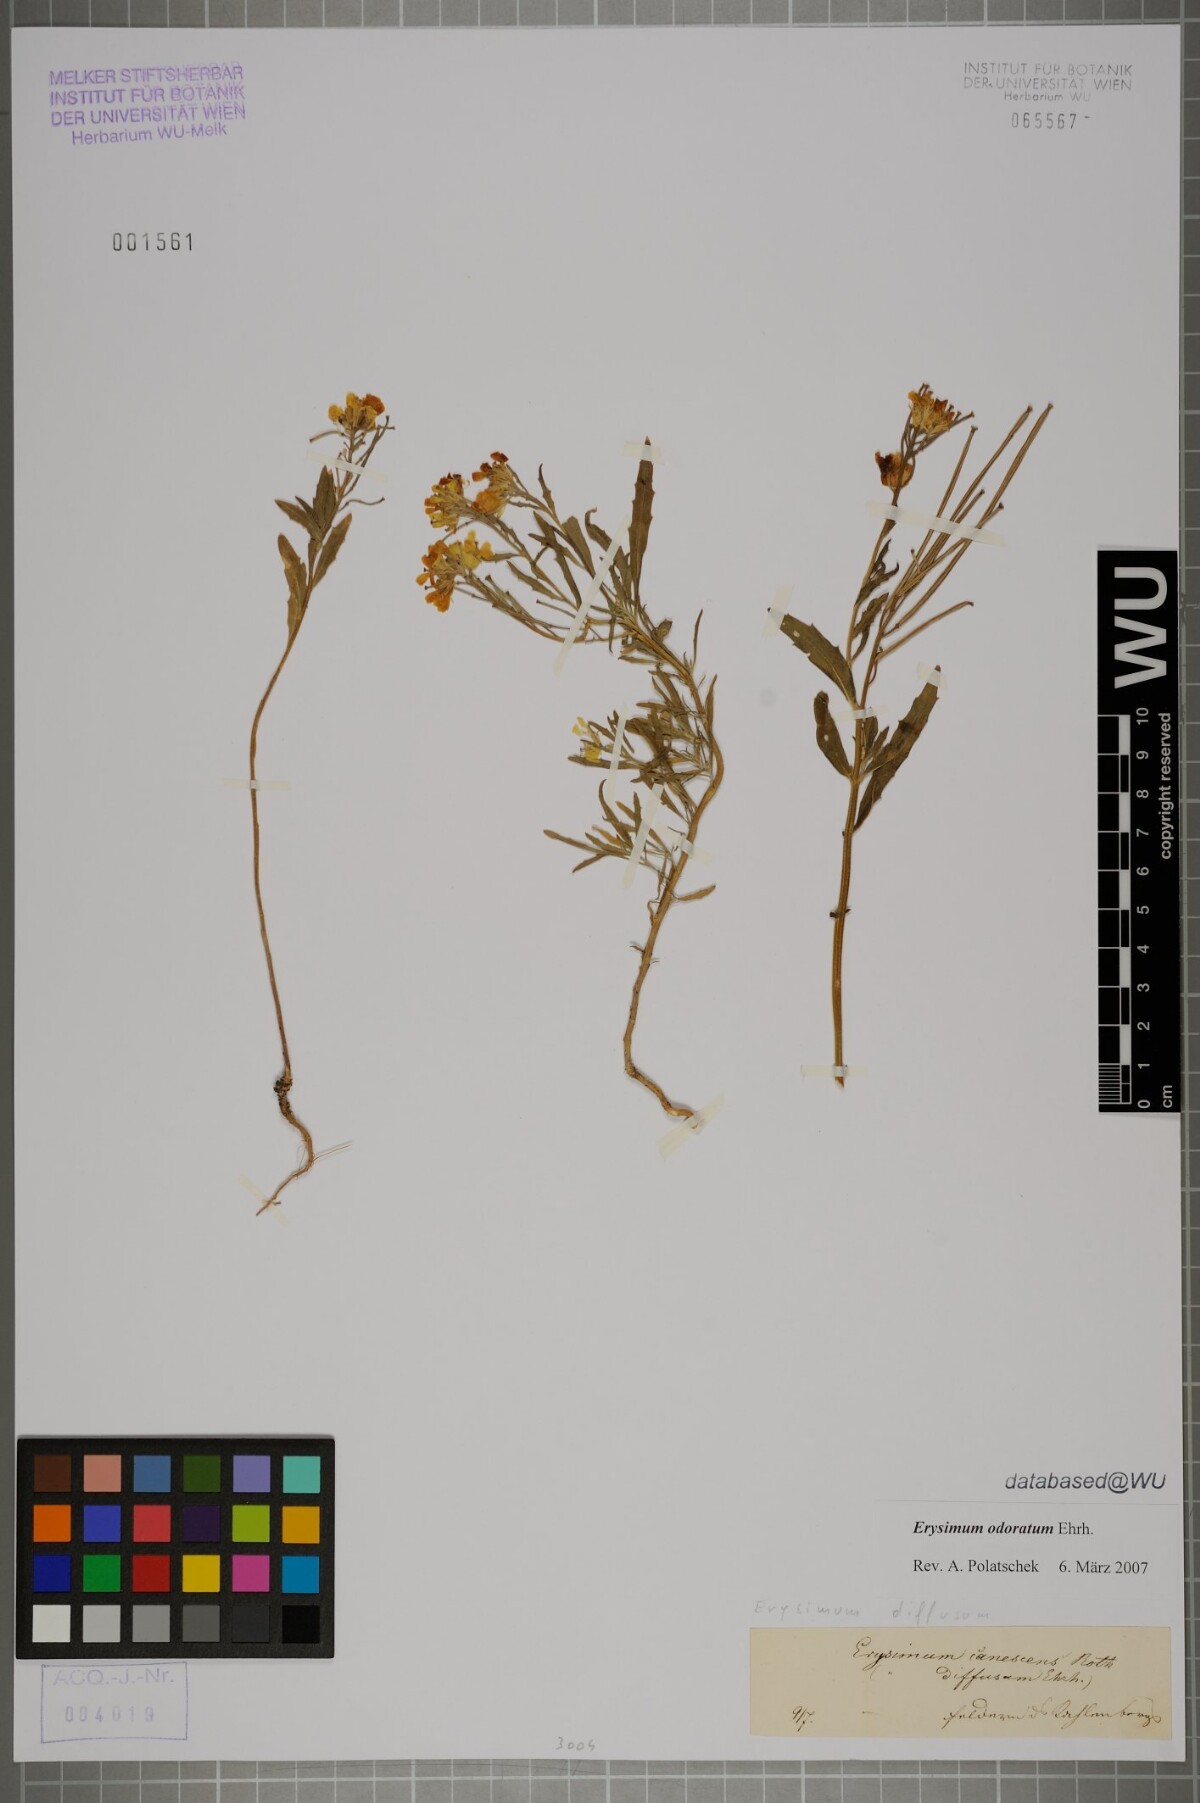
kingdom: Plantae
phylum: Tracheophyta
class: Magnoliopsida
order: Brassicales
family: Brassicaceae
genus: Erysimum
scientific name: Erysimum odoratum
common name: Smelly wallflower
